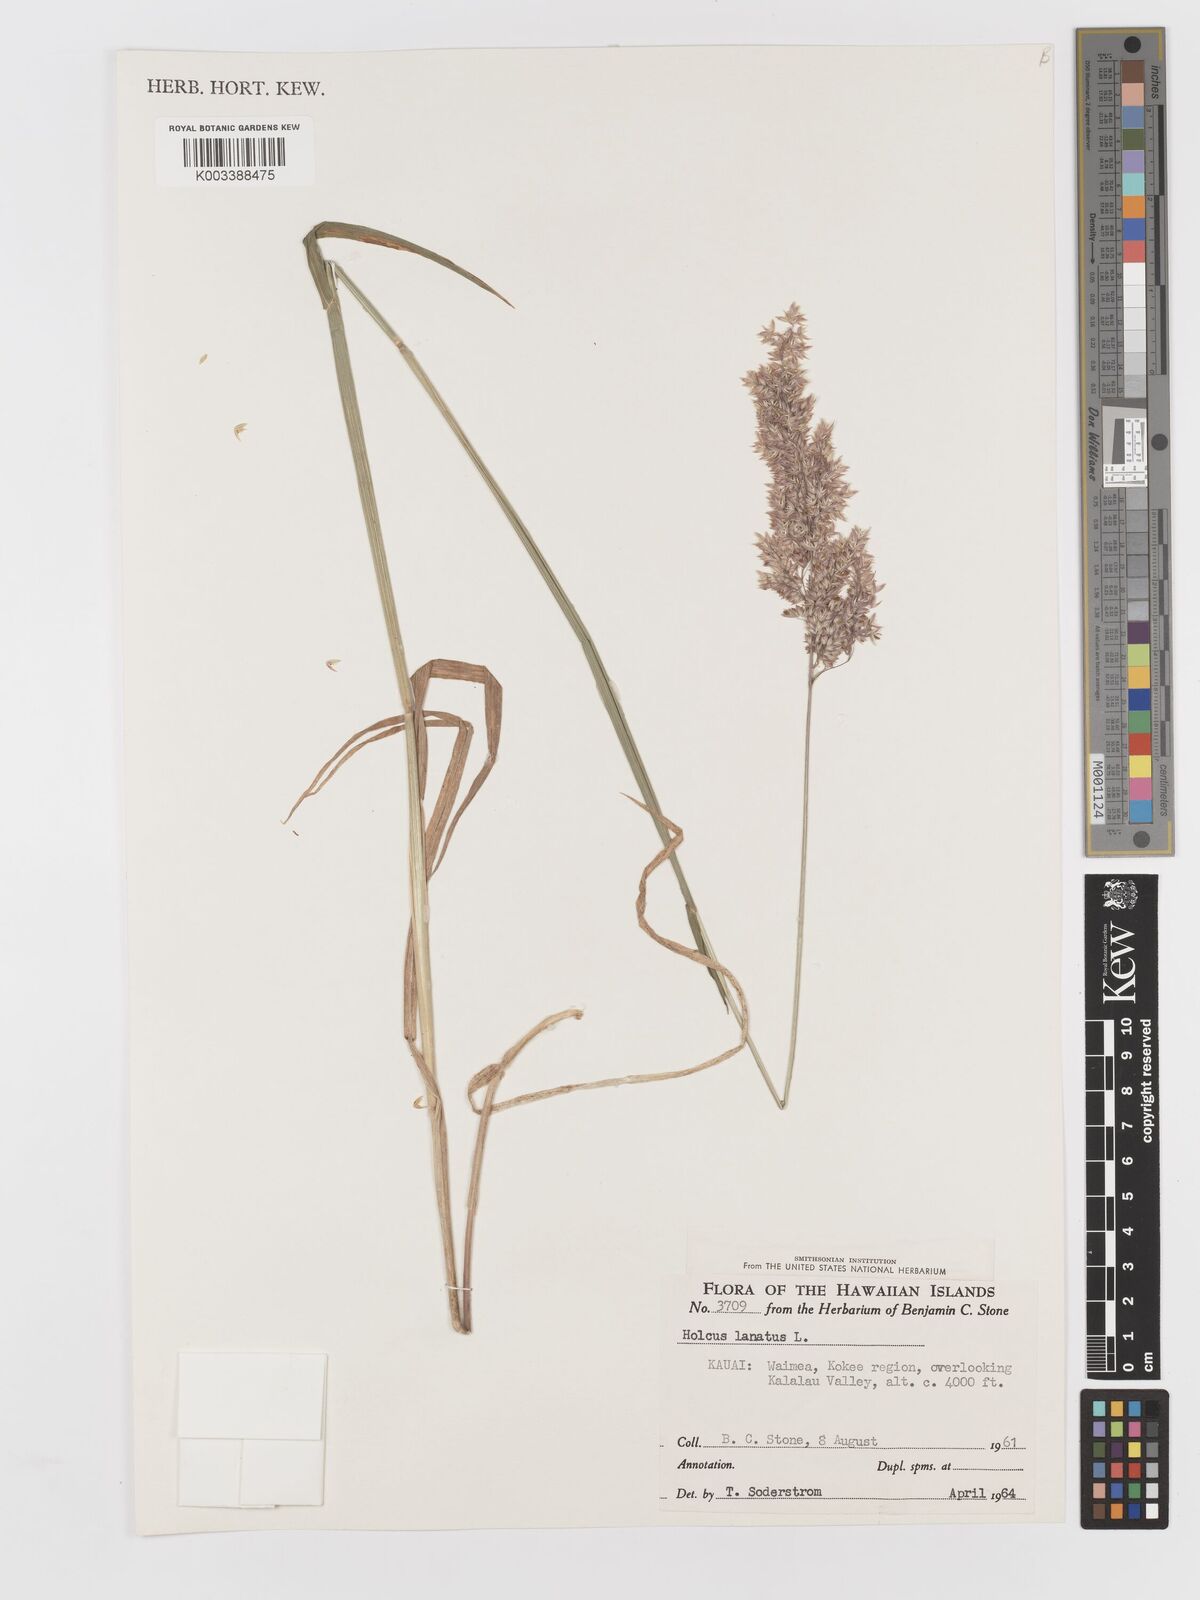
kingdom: Plantae
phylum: Tracheophyta
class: Liliopsida
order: Poales
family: Poaceae
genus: Holcus
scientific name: Holcus lanatus
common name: Yorkshire-fog
